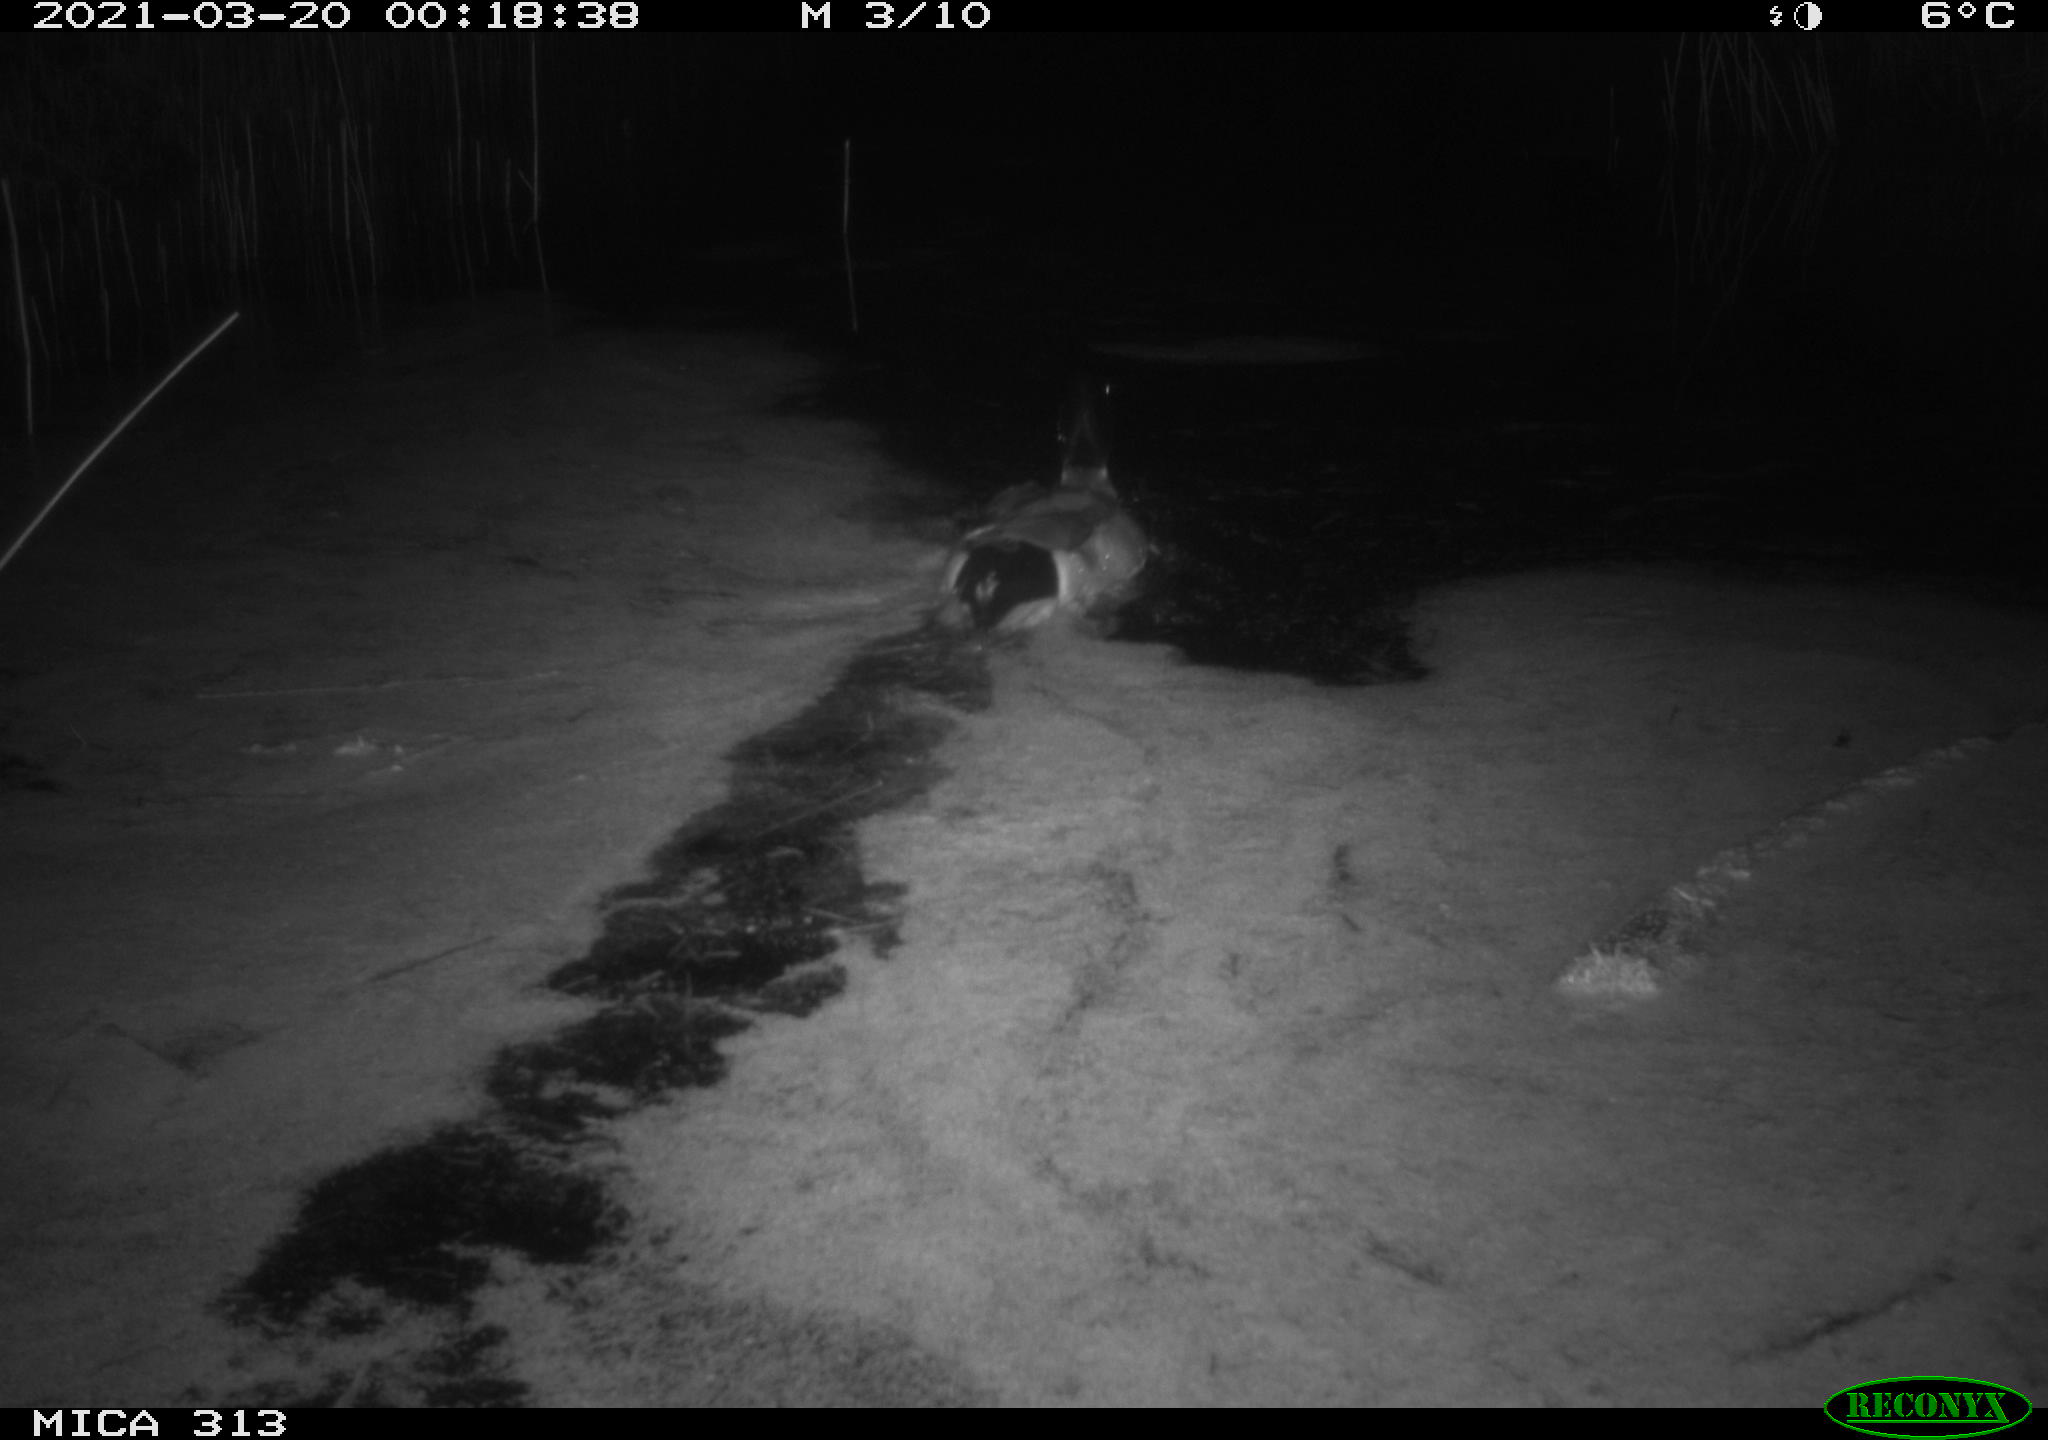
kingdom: Animalia
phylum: Chordata
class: Aves
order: Anseriformes
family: Anatidae
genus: Anas
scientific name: Anas platyrhynchos
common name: Mallard
